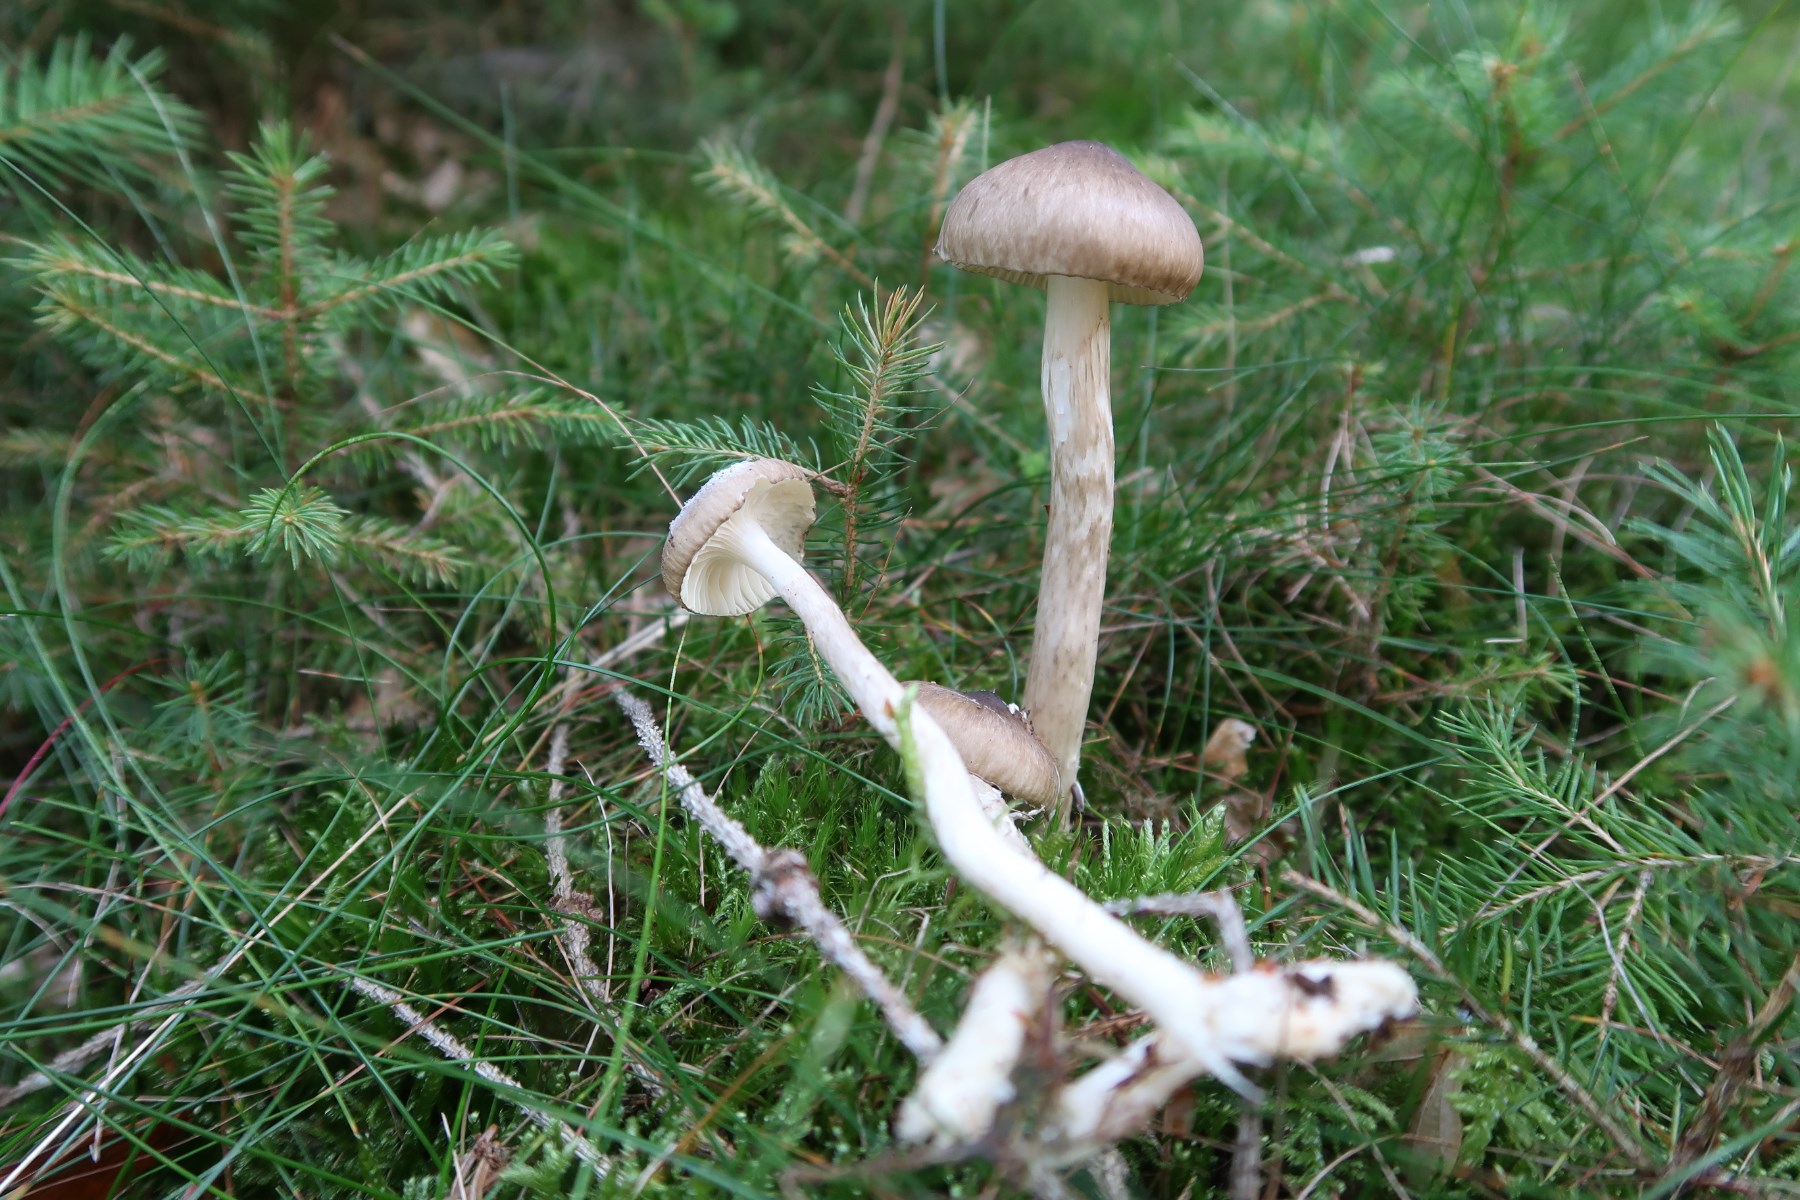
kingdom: Fungi
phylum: Basidiomycota
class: Agaricomycetes
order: Agaricales
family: Hygrophoraceae
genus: Hygrophorus
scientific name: Hygrophorus olivaceoalbus
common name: hvidbrun sneglehat
